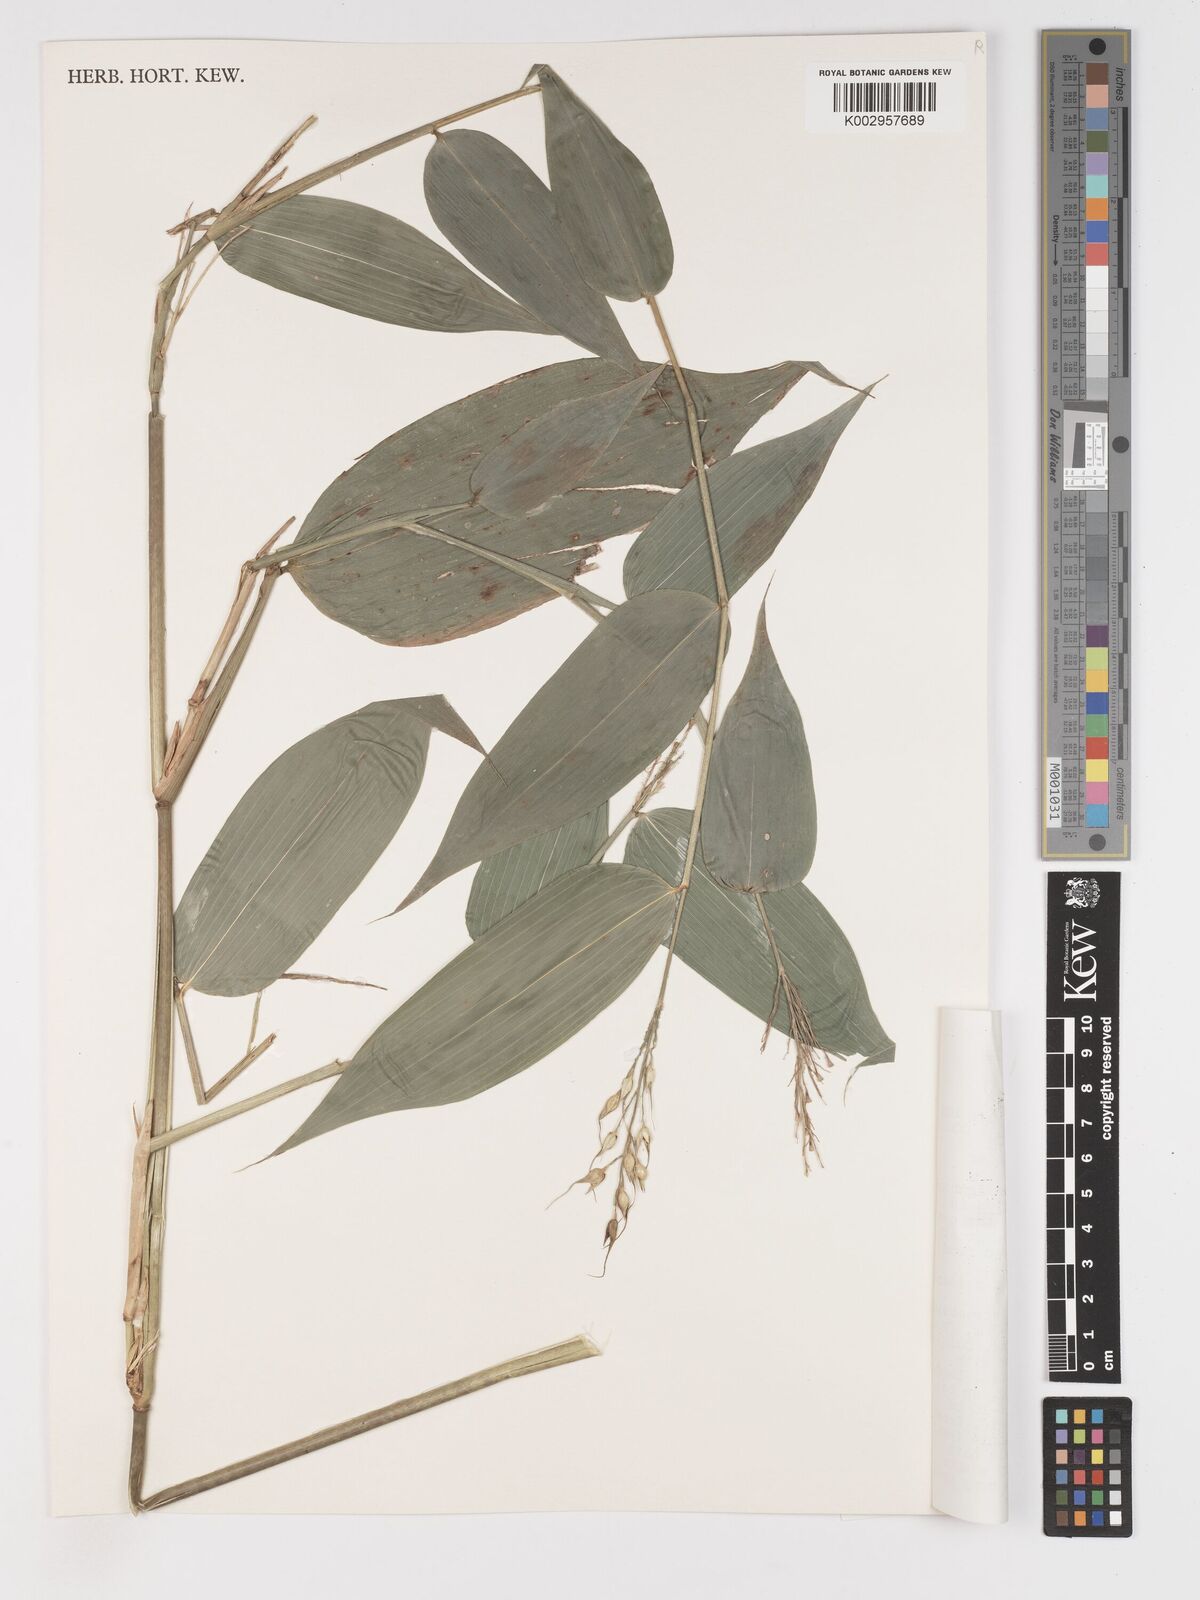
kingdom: Plantae
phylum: Tracheophyta
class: Liliopsida
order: Poales
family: Poaceae
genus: Olyra
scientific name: Olyra latifolia
